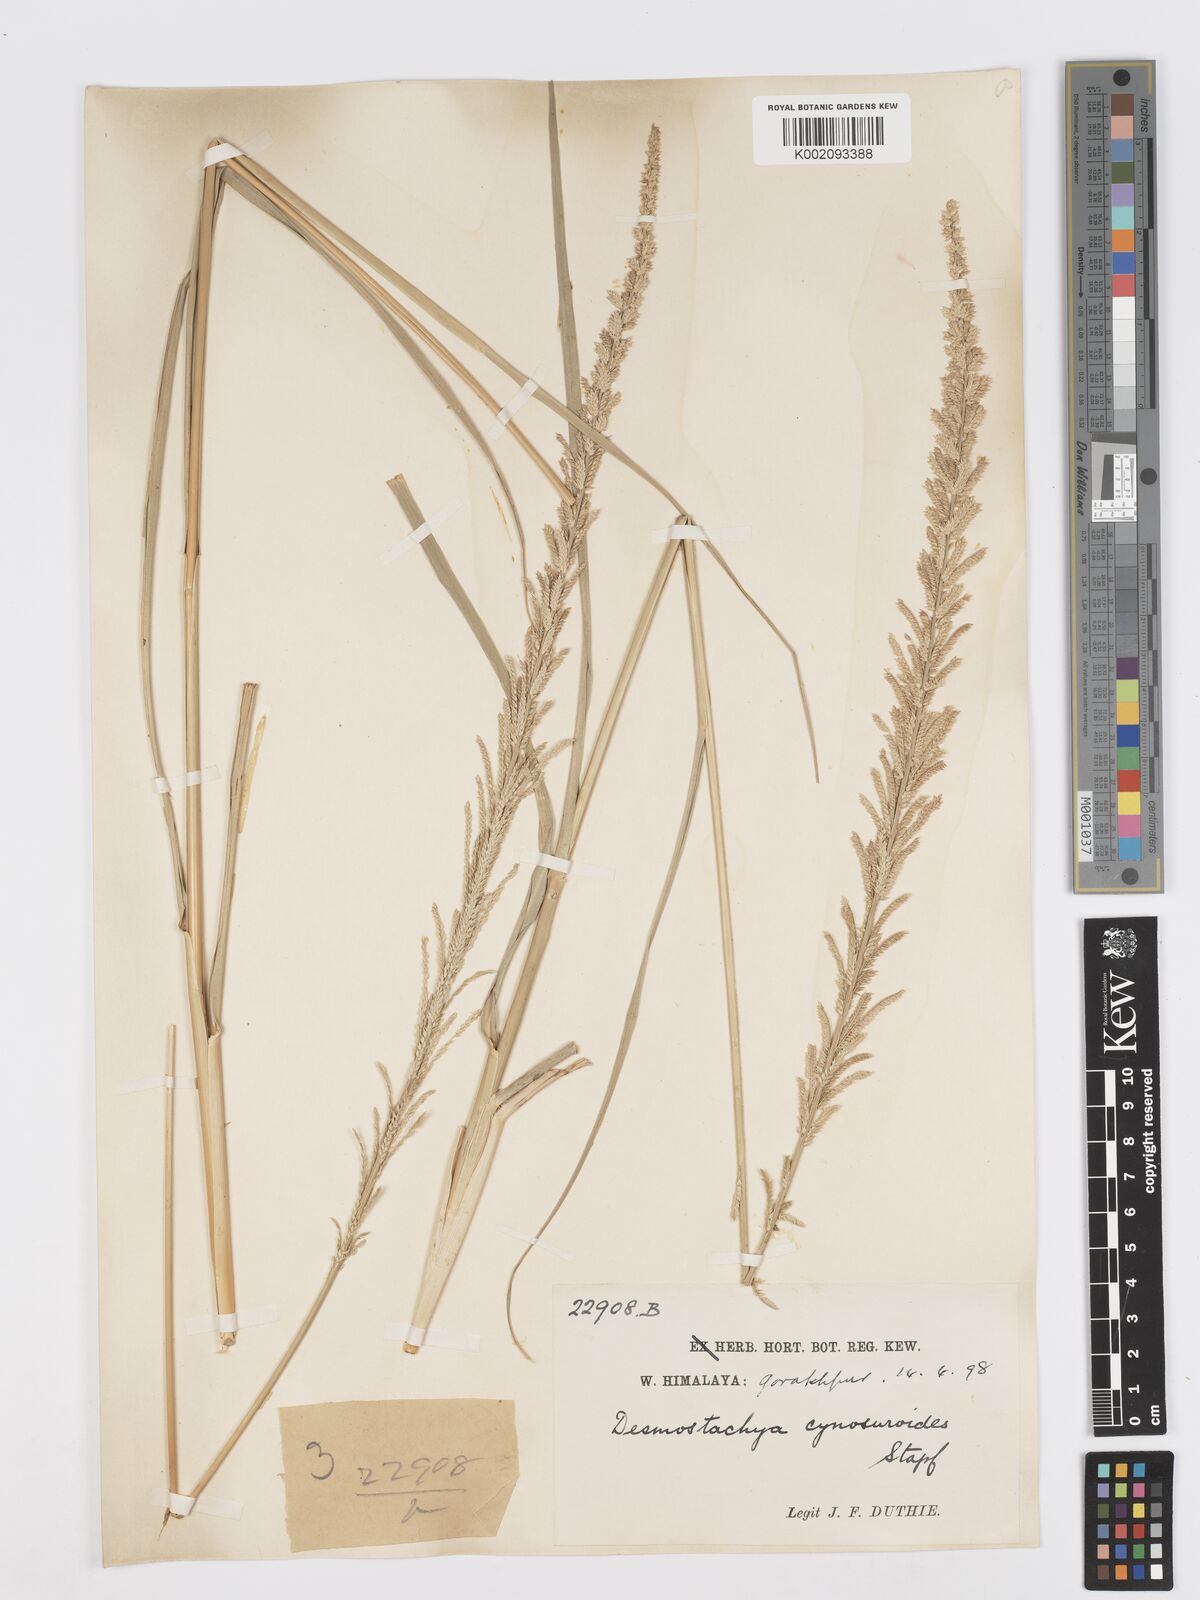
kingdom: Plantae
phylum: Tracheophyta
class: Liliopsida
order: Poales
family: Poaceae
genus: Desmostachya
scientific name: Desmostachya bipinnata
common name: Crowfoot grass
